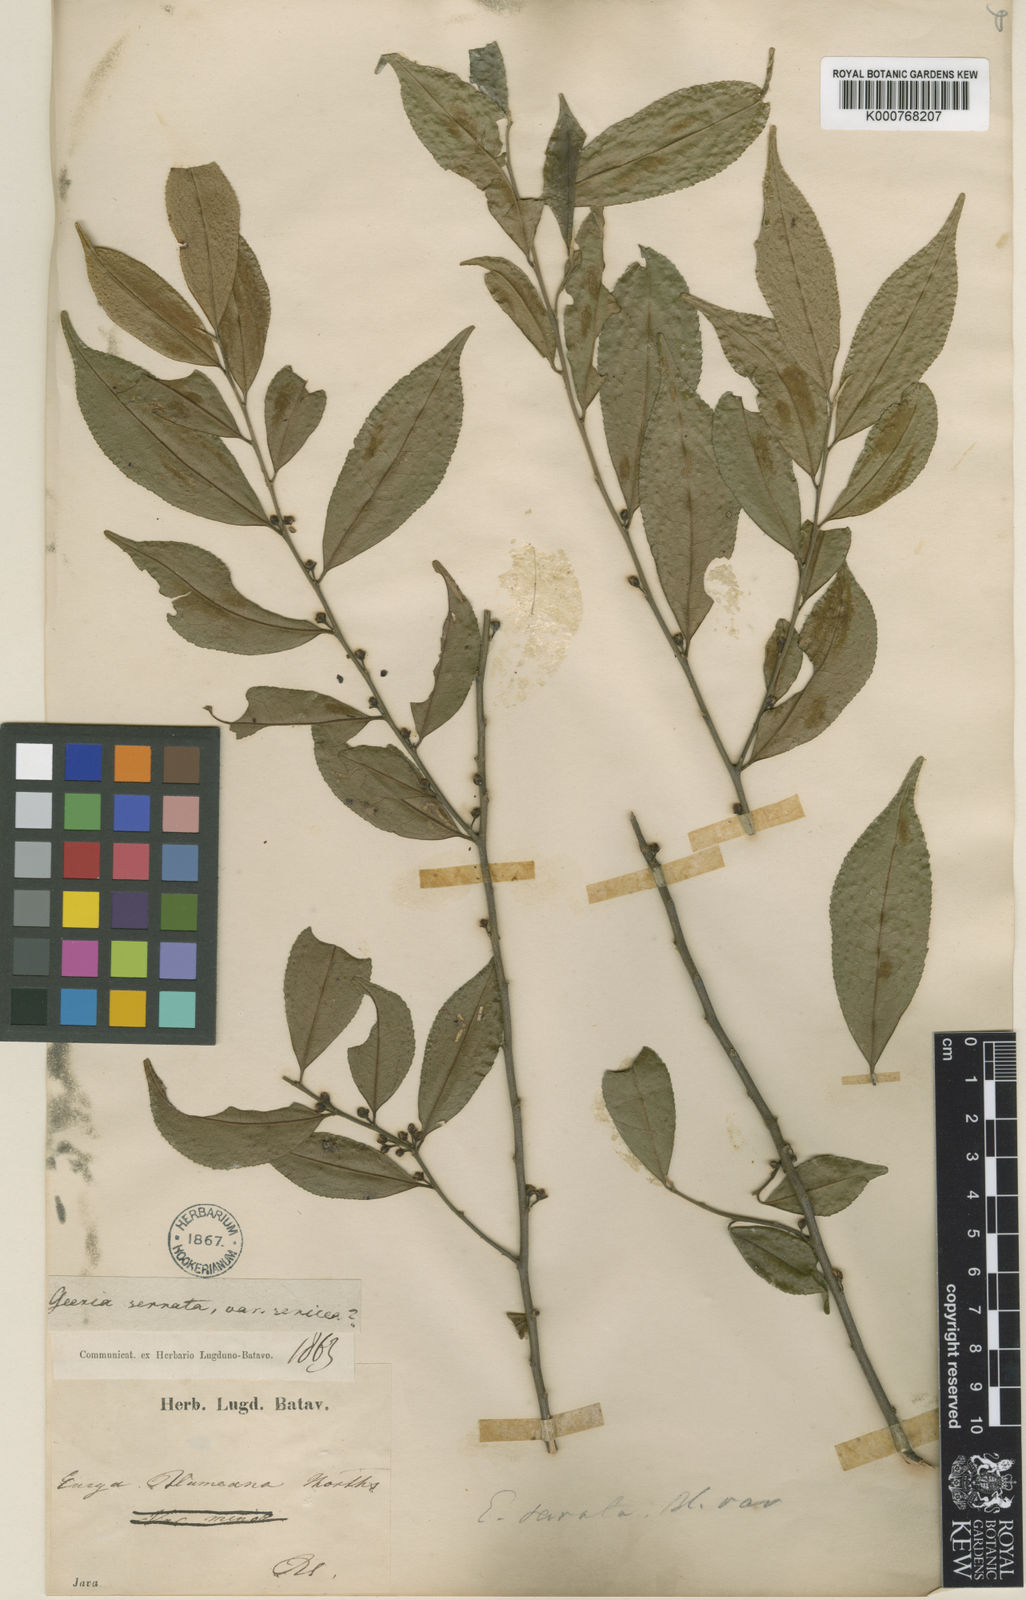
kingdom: Plantae
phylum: Tracheophyta
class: Magnoliopsida
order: Ericales
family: Pentaphylacaceae
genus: Eurya
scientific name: Eurya acuminata
